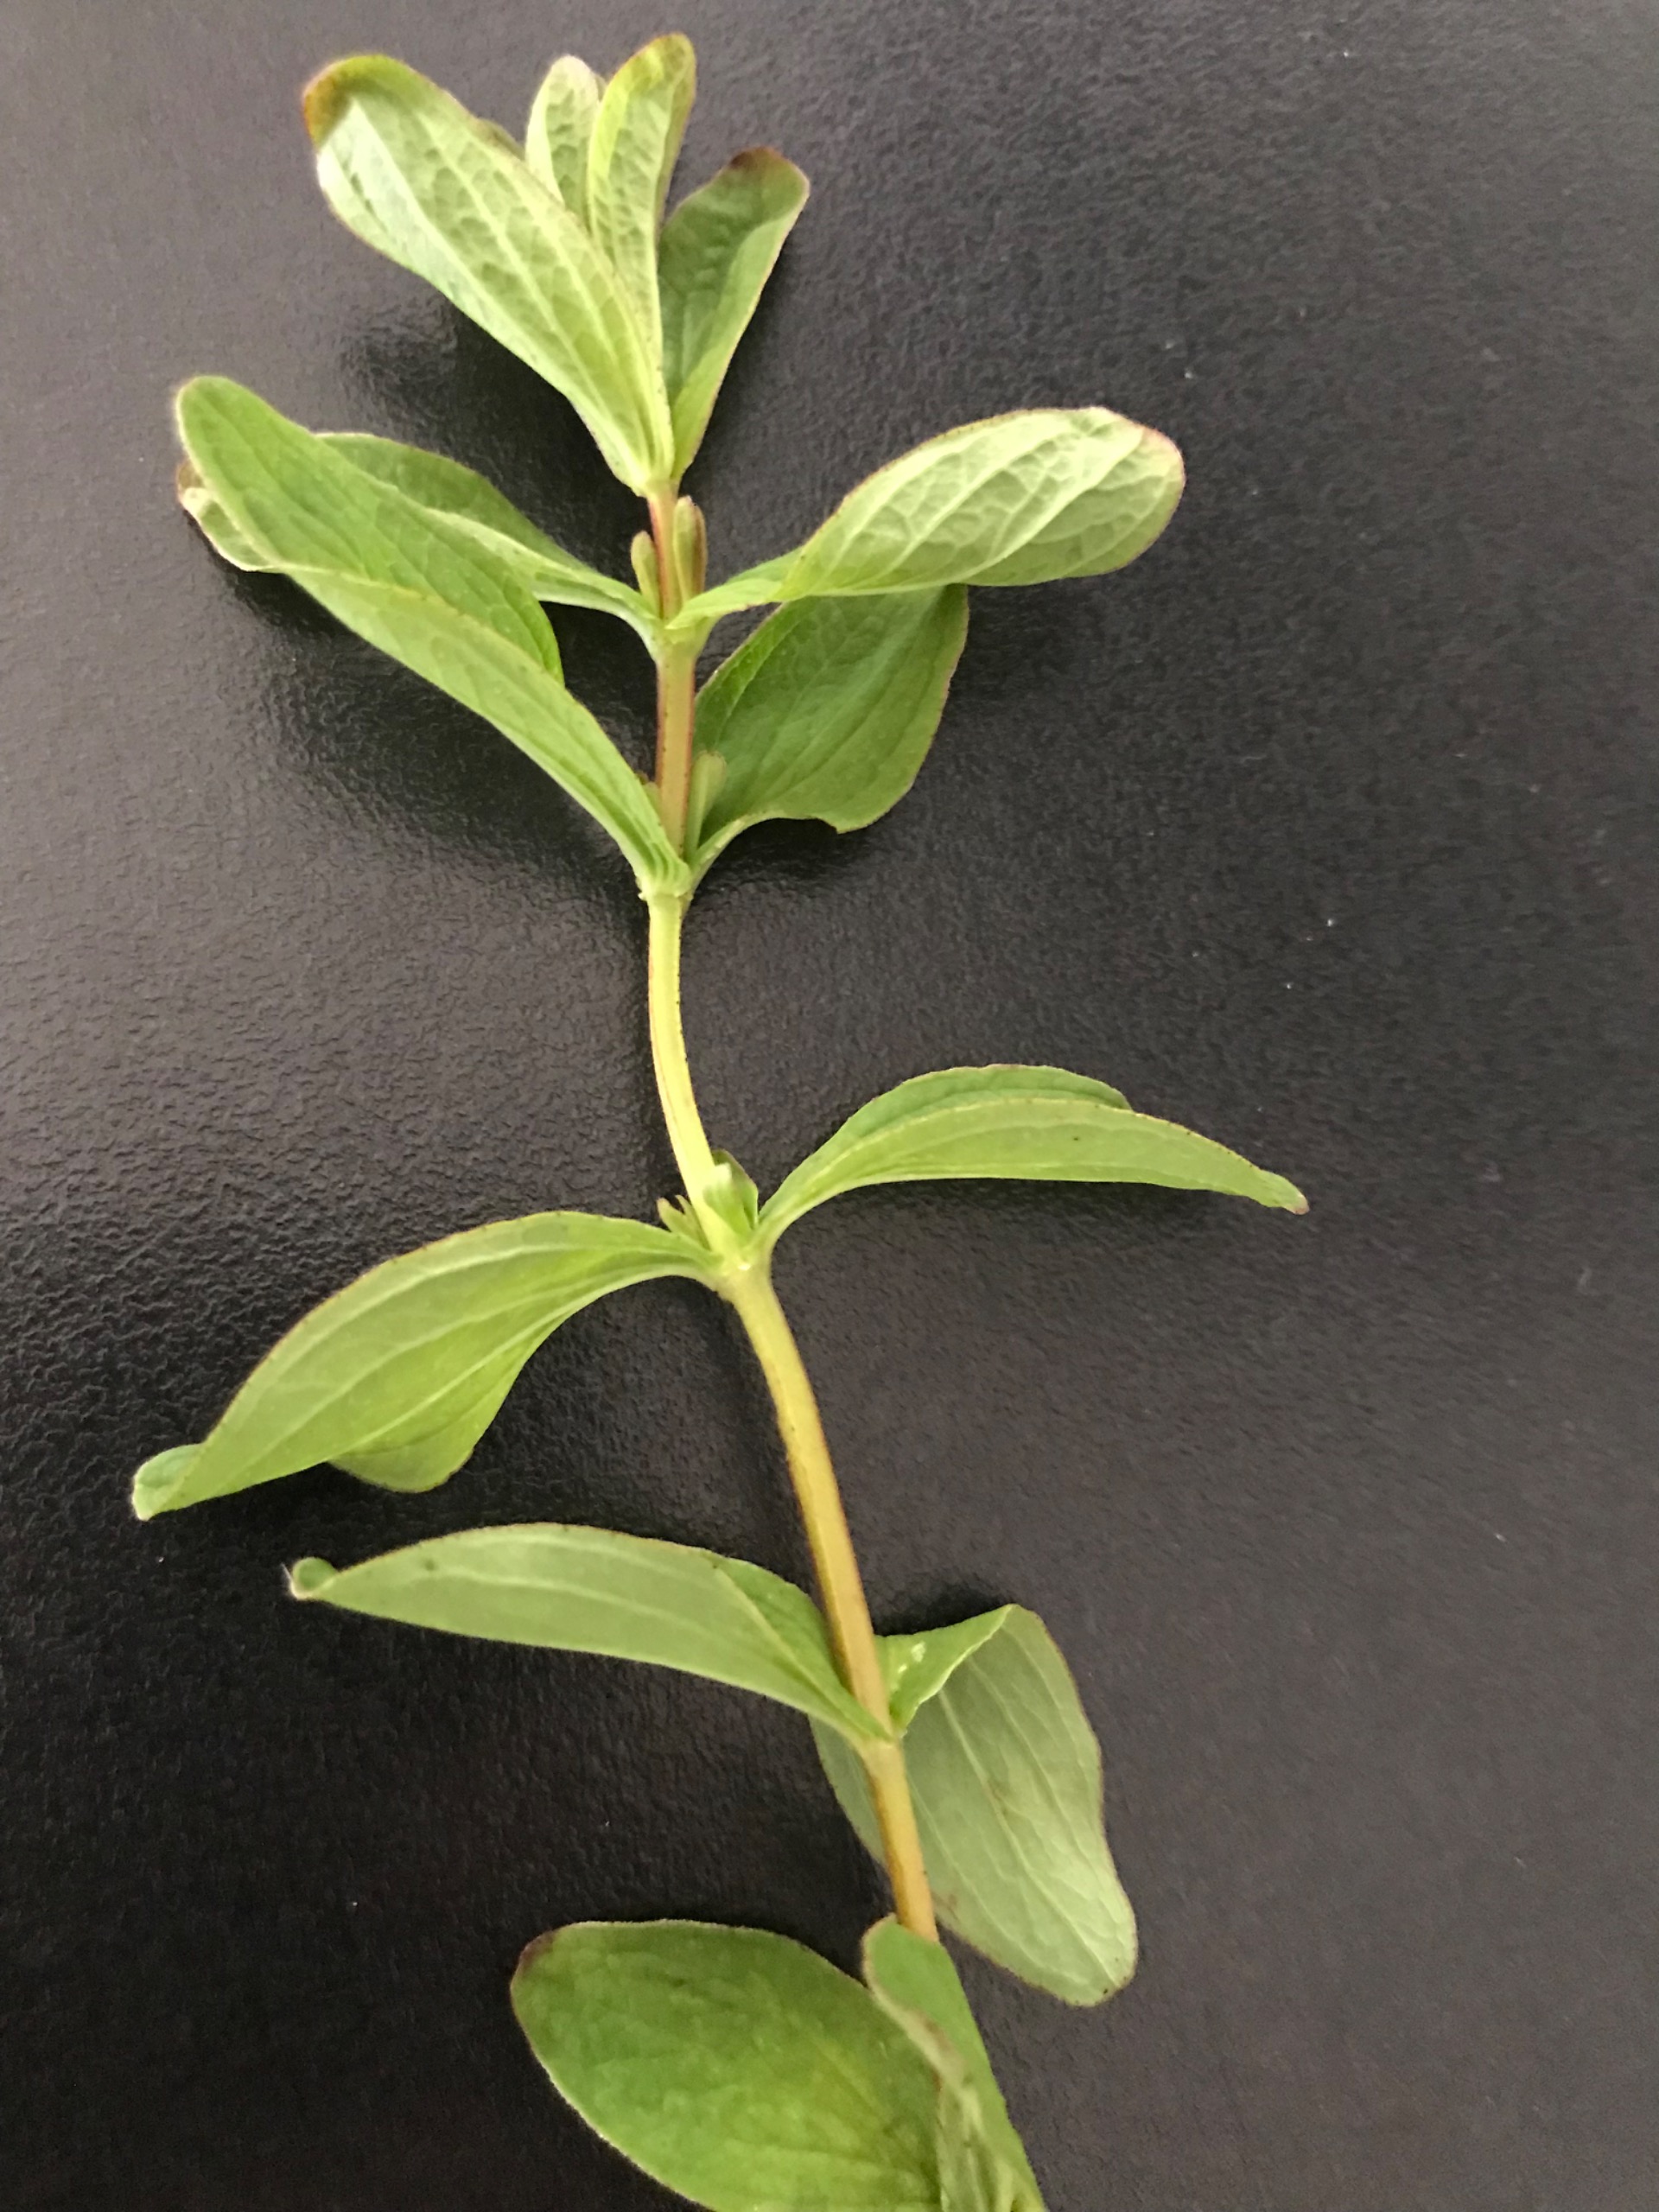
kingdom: Plantae
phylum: Tracheophyta
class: Magnoliopsida
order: Malpighiales
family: Hypericaceae
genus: Hypericum
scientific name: Hypericum maculatum
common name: Kantet perikon
